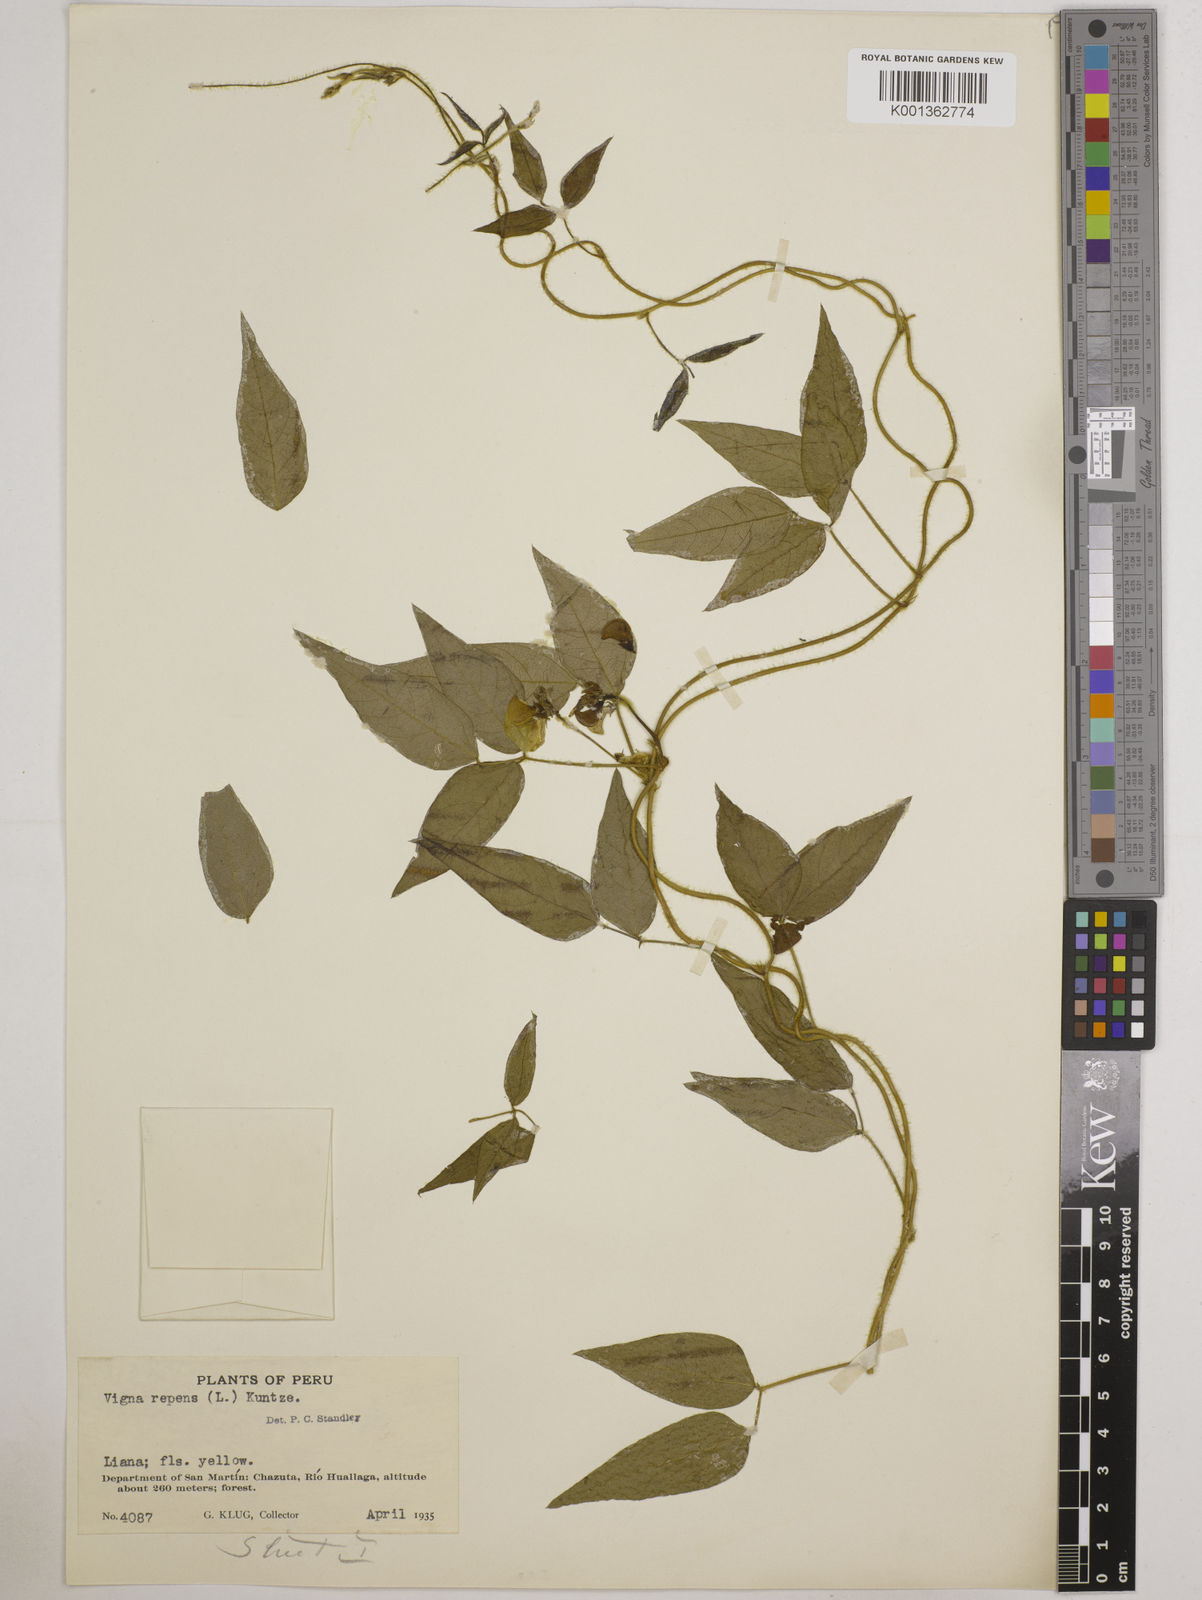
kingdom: Plantae
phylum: Tracheophyta
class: Magnoliopsida
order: Fabales
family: Fabaceae
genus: Vigna
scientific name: Vigna luteola
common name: Hairypod cowpea
